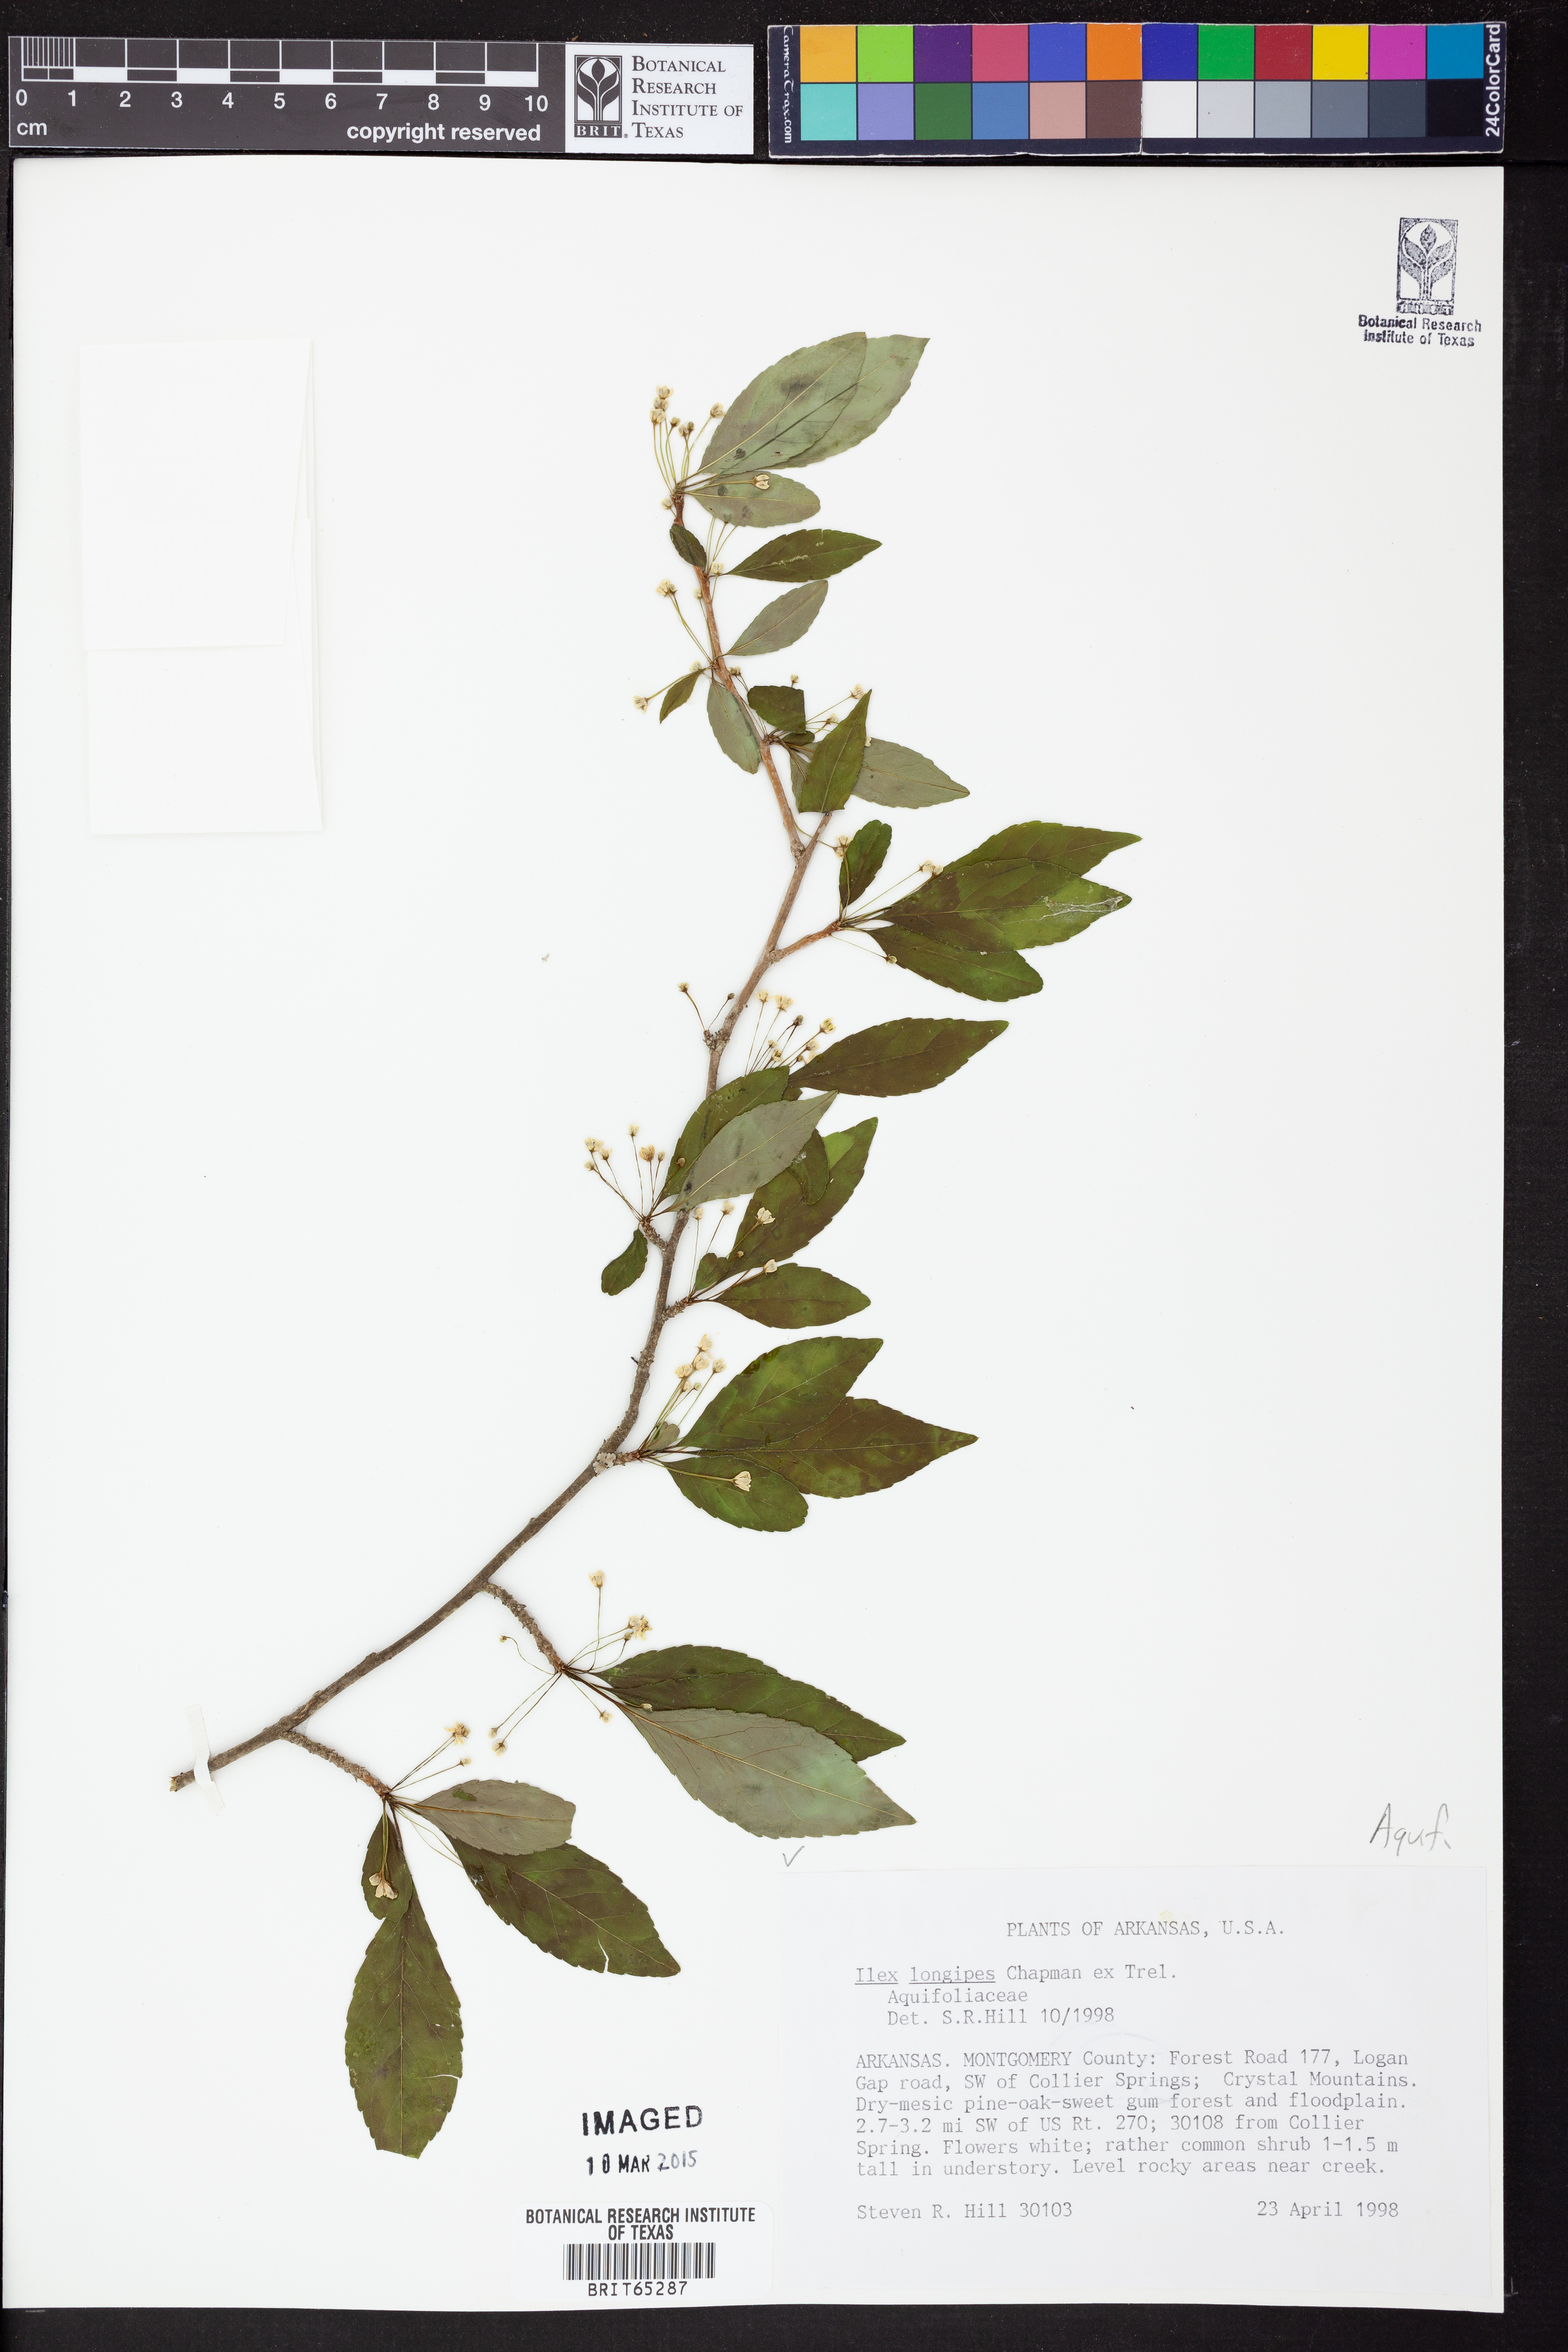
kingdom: Plantae
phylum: Tracheophyta
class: Magnoliopsida
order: Aquifoliales
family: Aquifoliaceae
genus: Ilex
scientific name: Ilex longipes
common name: Georgia holly
